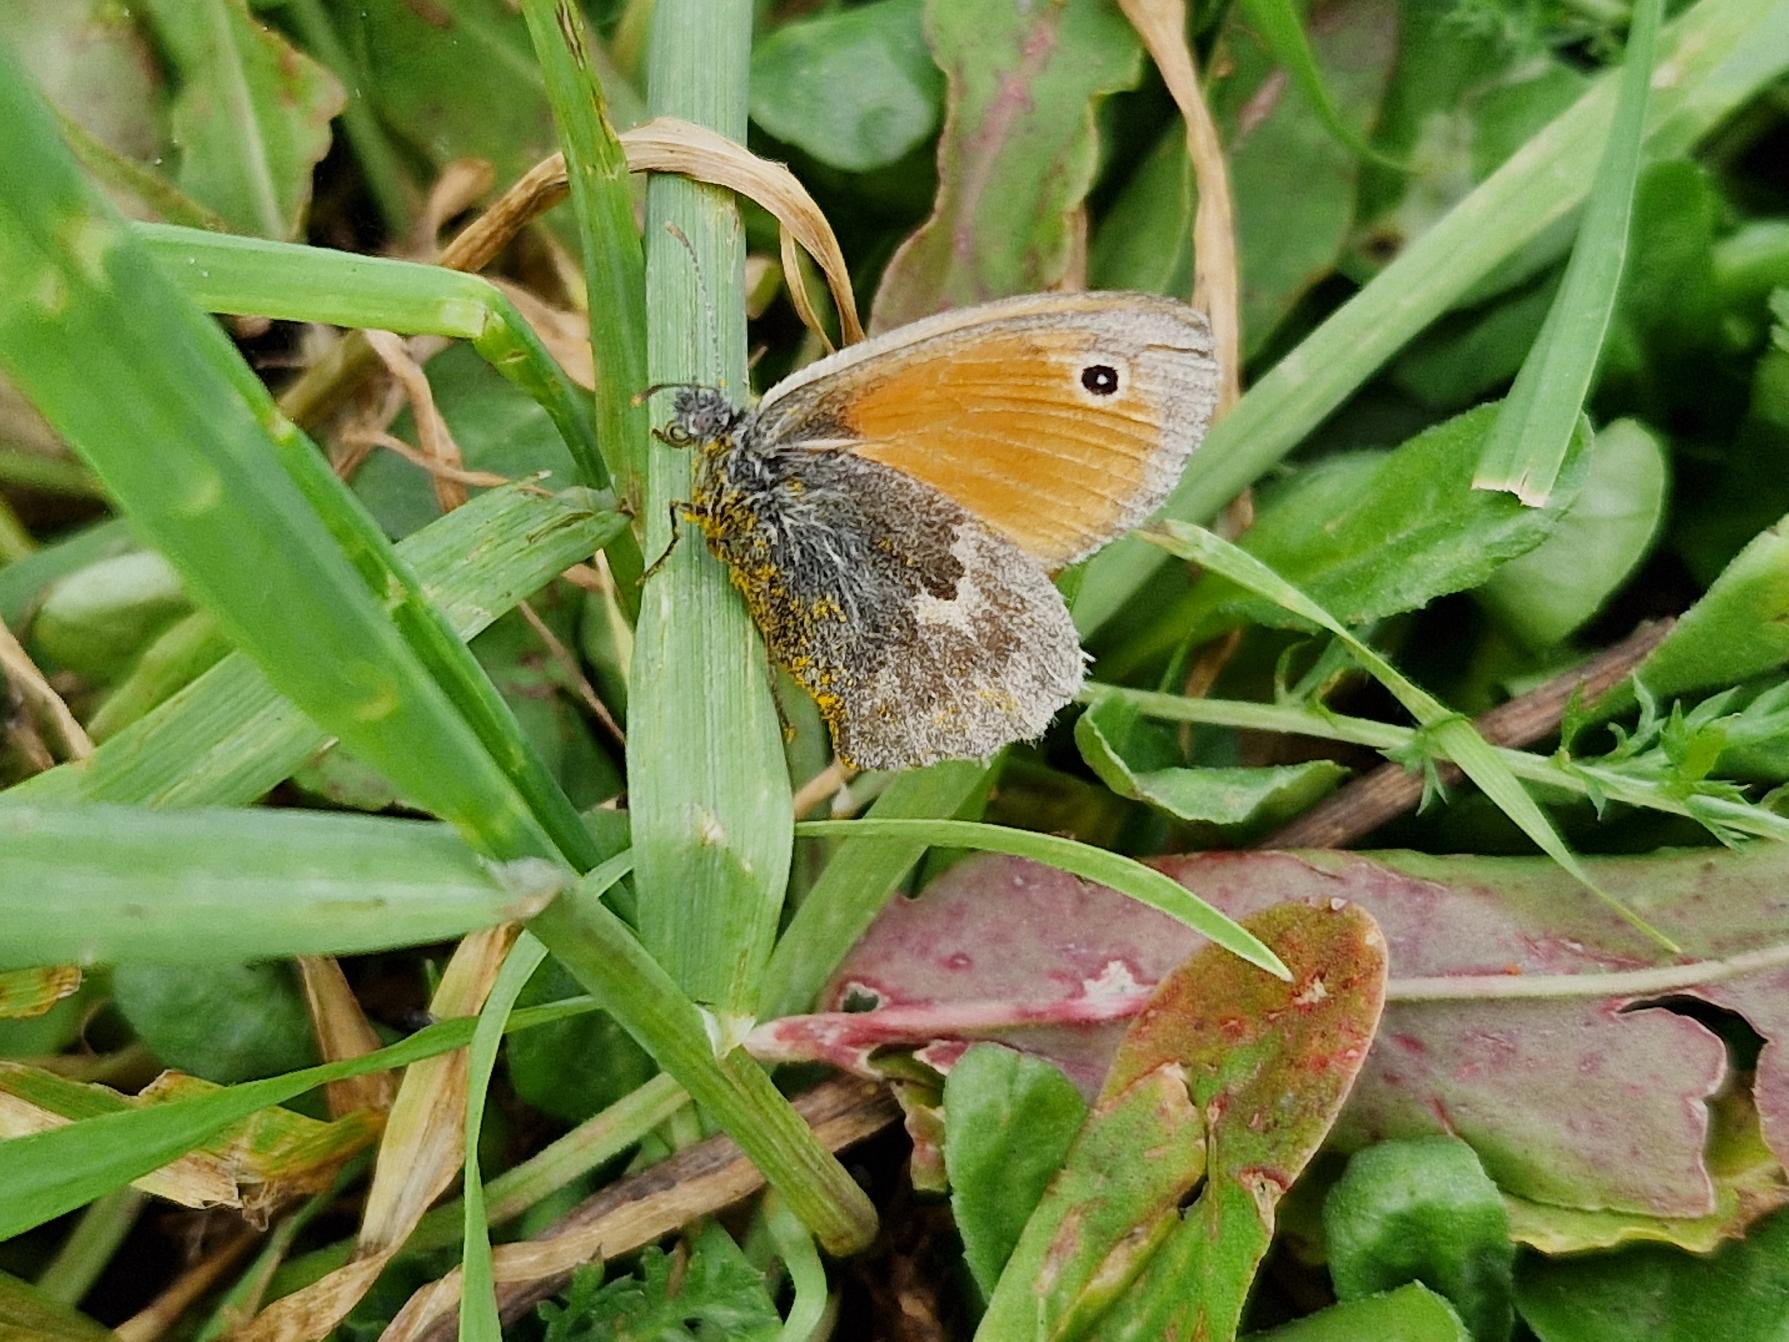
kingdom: Animalia
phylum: Arthropoda
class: Insecta
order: Lepidoptera
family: Nymphalidae
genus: Coenonympha
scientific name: Coenonympha pamphilus
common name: Okkergul randøje
